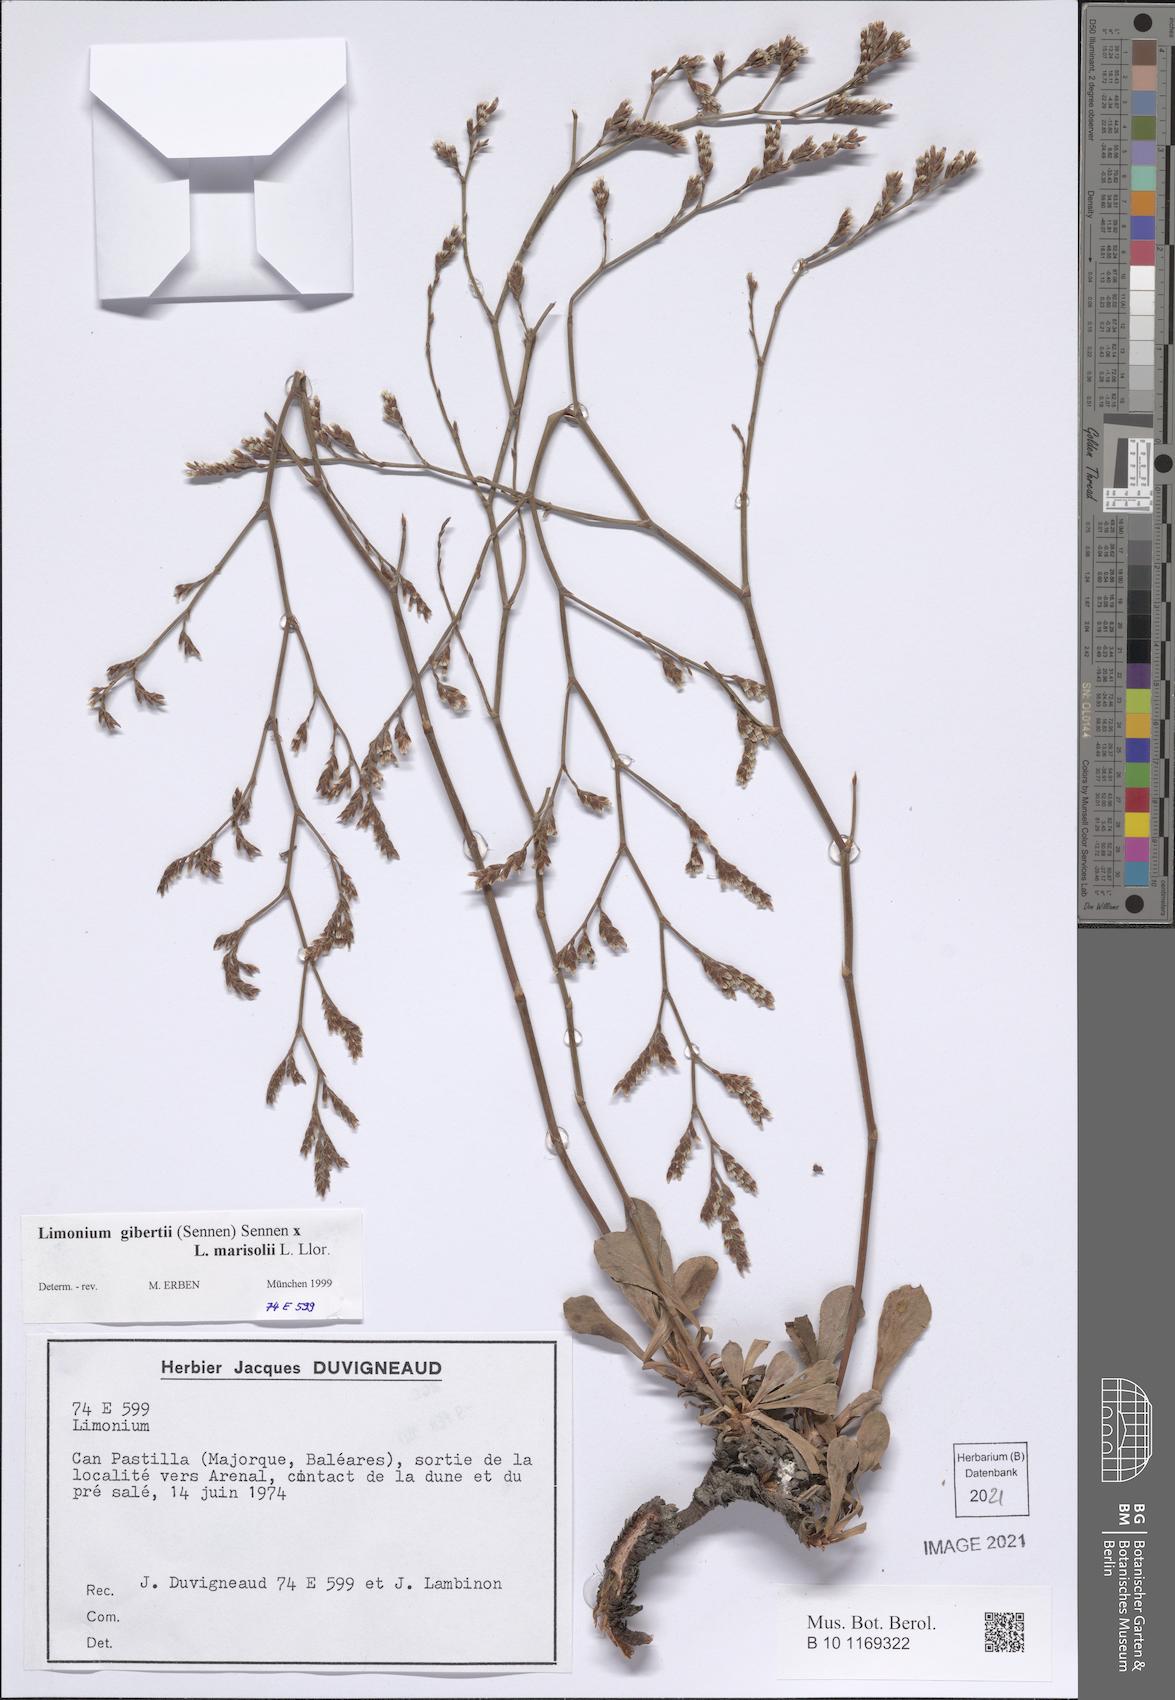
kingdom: Plantae
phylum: Tracheophyta
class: Magnoliopsida
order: Caryophyllales
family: Plumbaginaceae
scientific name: Plumbaginaceae
